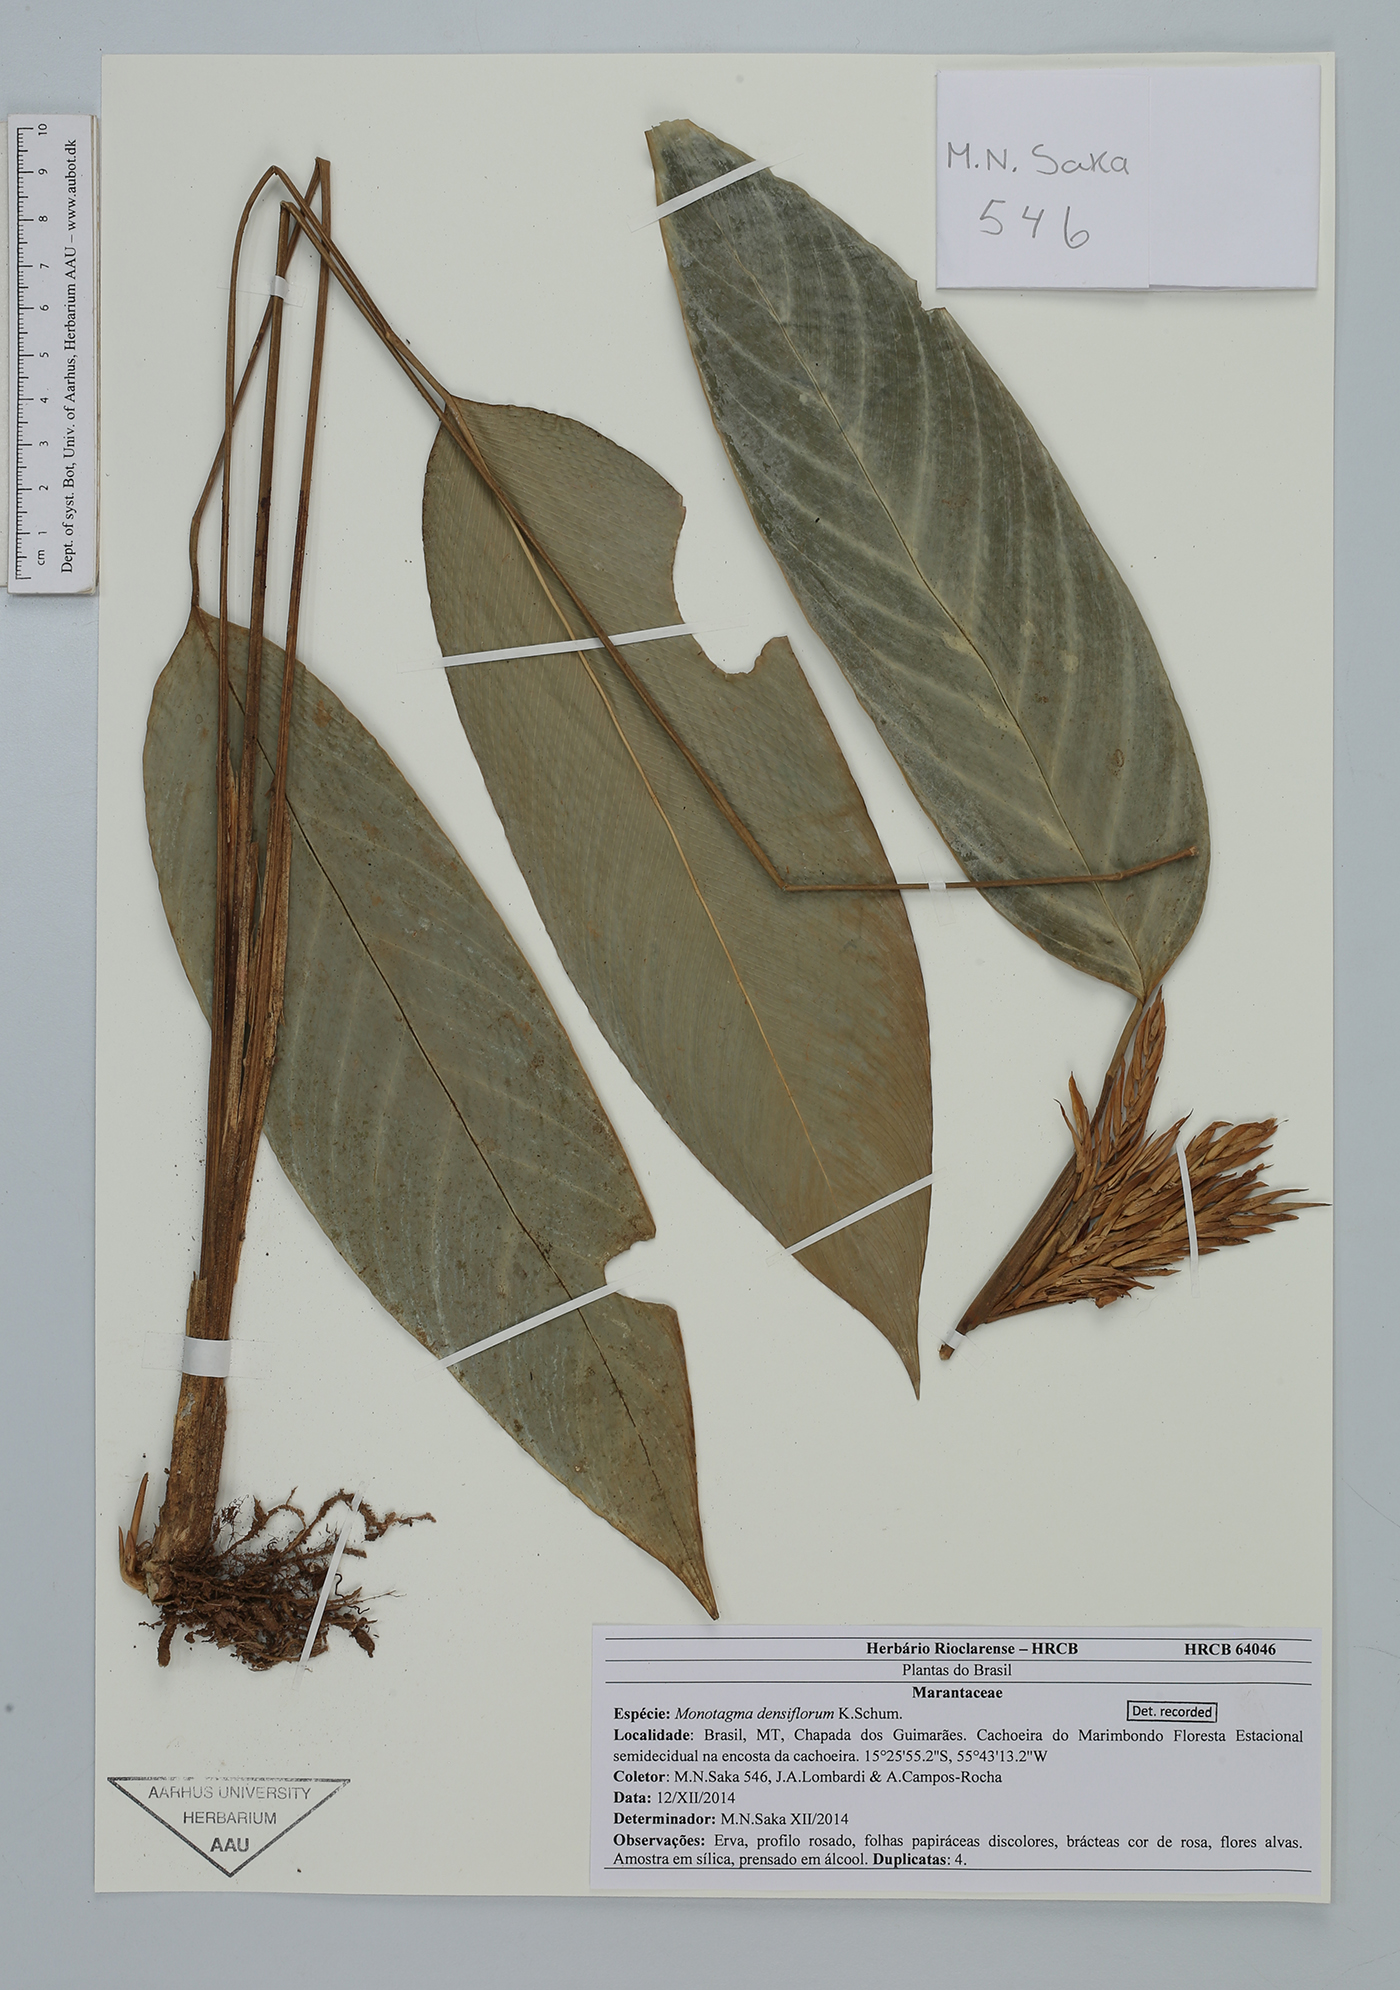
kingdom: Plantae
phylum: Tracheophyta
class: Liliopsida
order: Zingiberales
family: Marantaceae
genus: Monotagma
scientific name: Monotagma densiflorum
